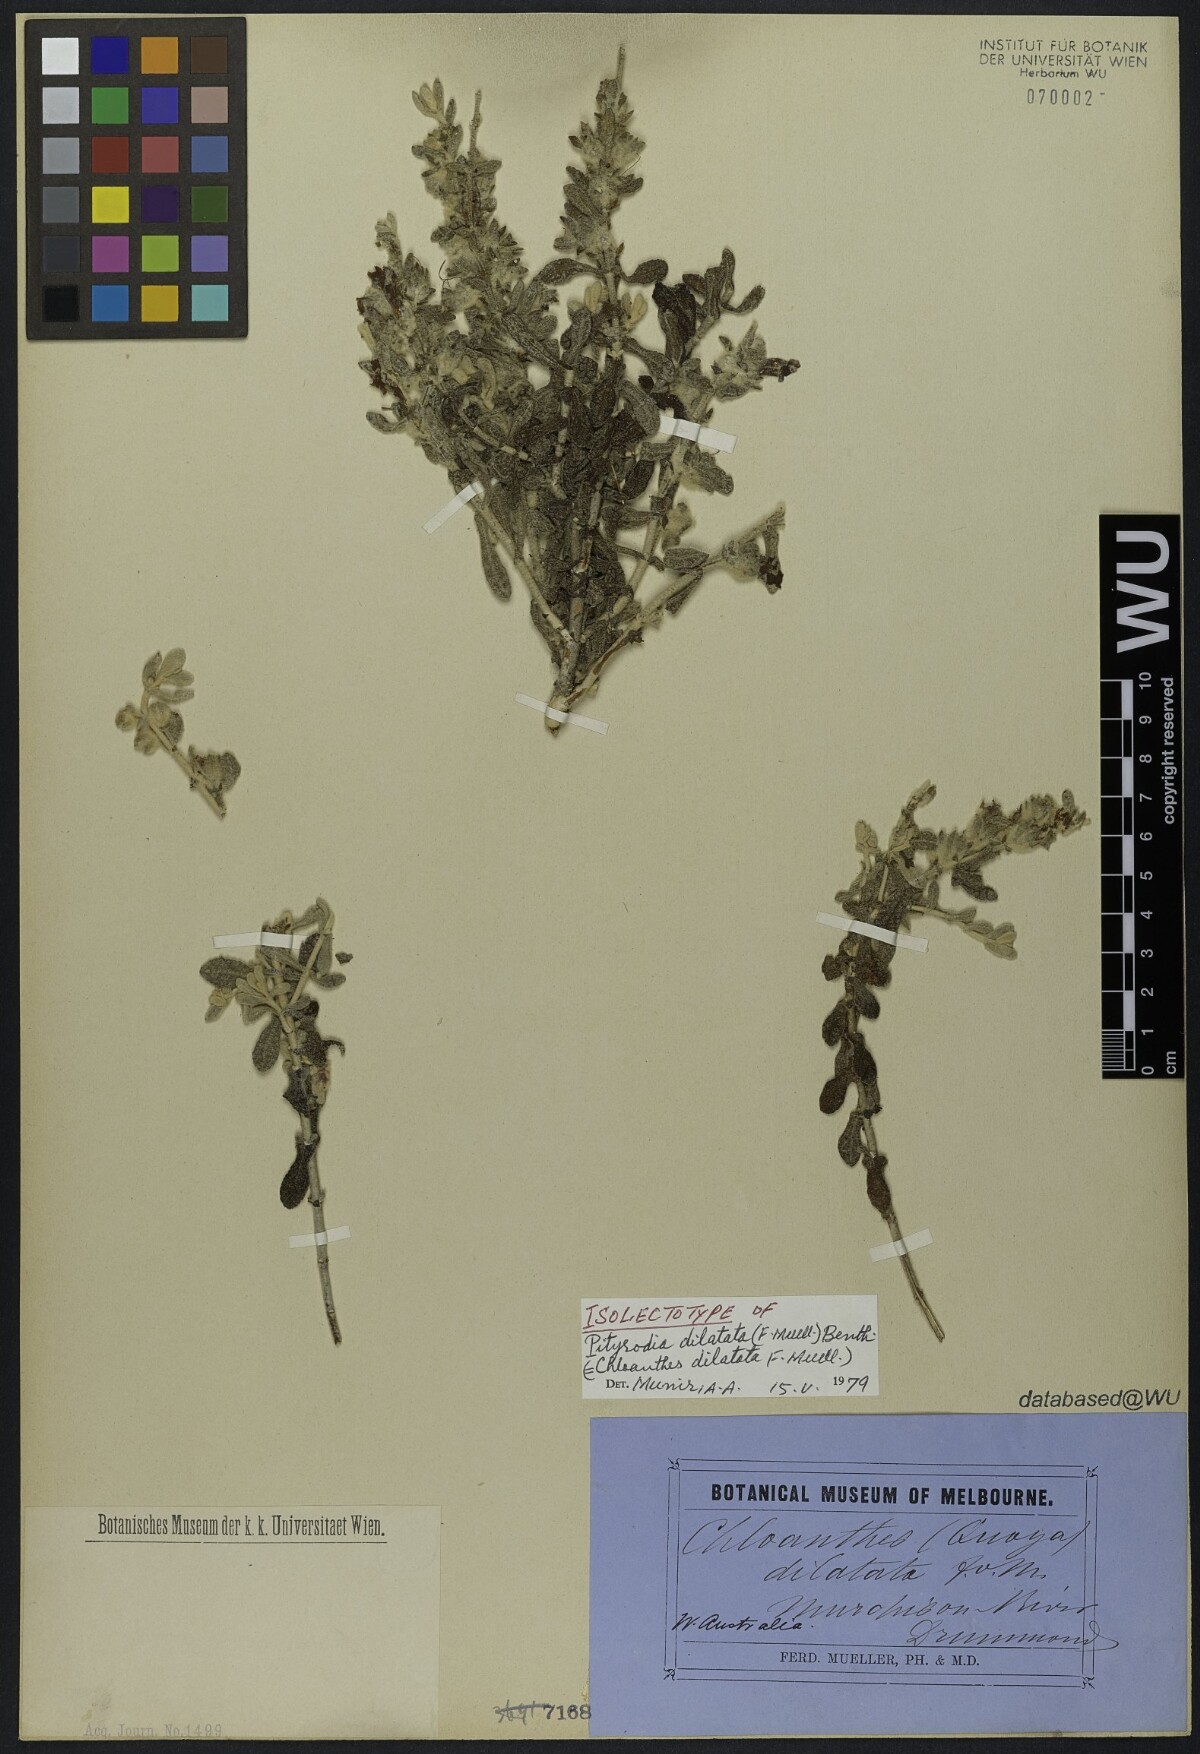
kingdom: Plantae
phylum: Tracheophyta
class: Magnoliopsida
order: Lamiales
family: Lamiaceae
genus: Quoya
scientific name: Quoya dilatata
